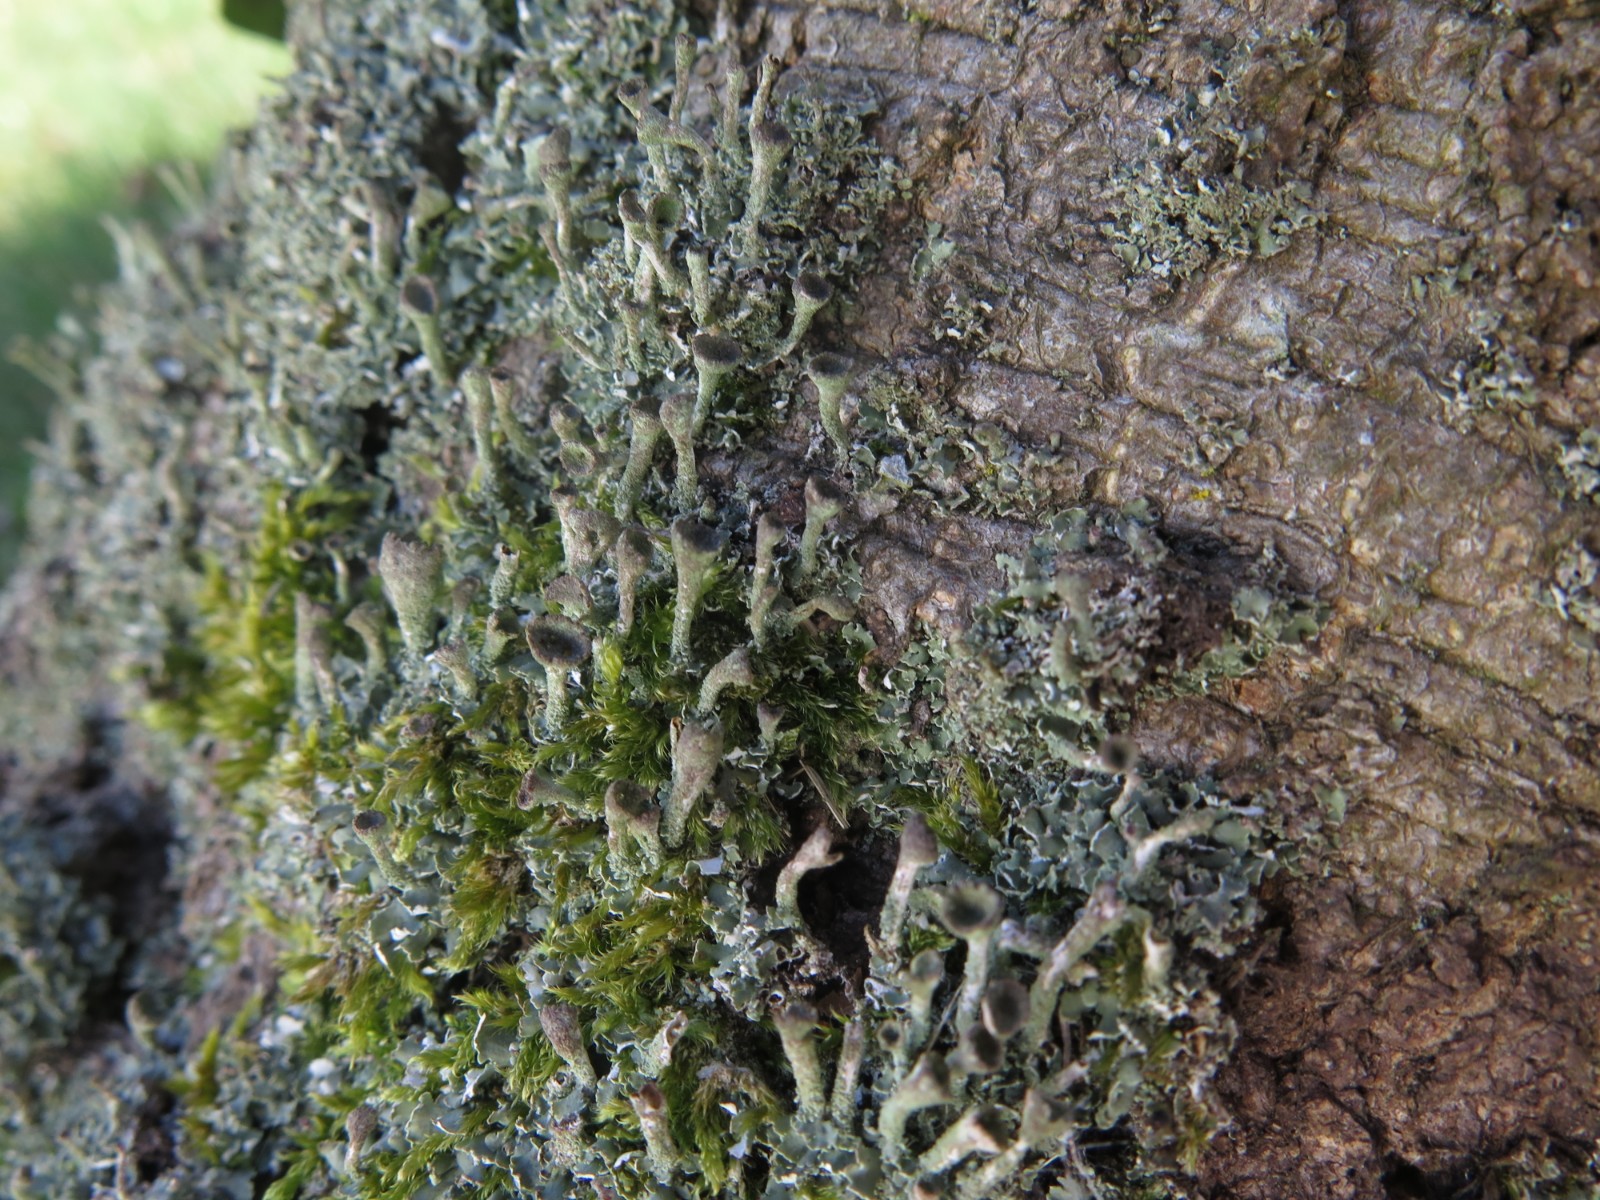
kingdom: Fungi
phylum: Ascomycota
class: Lecanoromycetes
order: Lecanorales
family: Cladoniaceae
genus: Cladonia
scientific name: Cladonia
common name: brungrøn bægerlav
